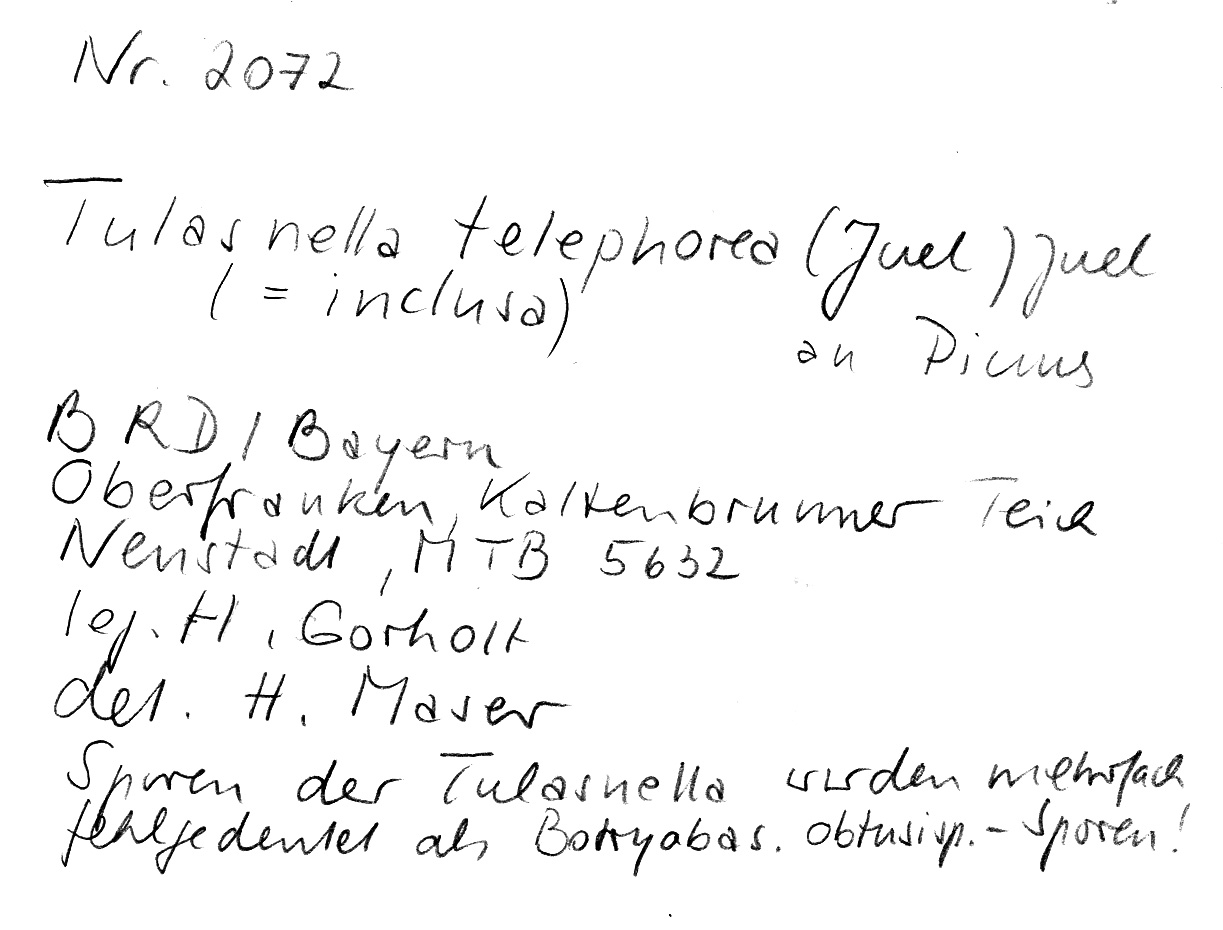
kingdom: Fungi
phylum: Basidiomycota
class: Agaricomycetes
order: Cantharellales
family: Tulasnellaceae
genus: Tulasnella
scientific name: Tulasnella thelephorea
